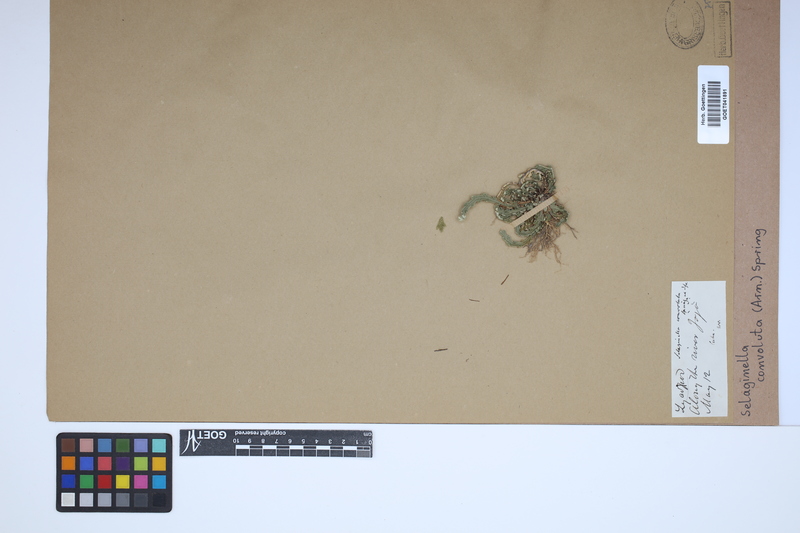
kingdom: Plantae
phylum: Tracheophyta
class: Lycopodiopsida
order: Selaginellales
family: Selaginellaceae
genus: Selaginella
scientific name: Selaginella convoluta
